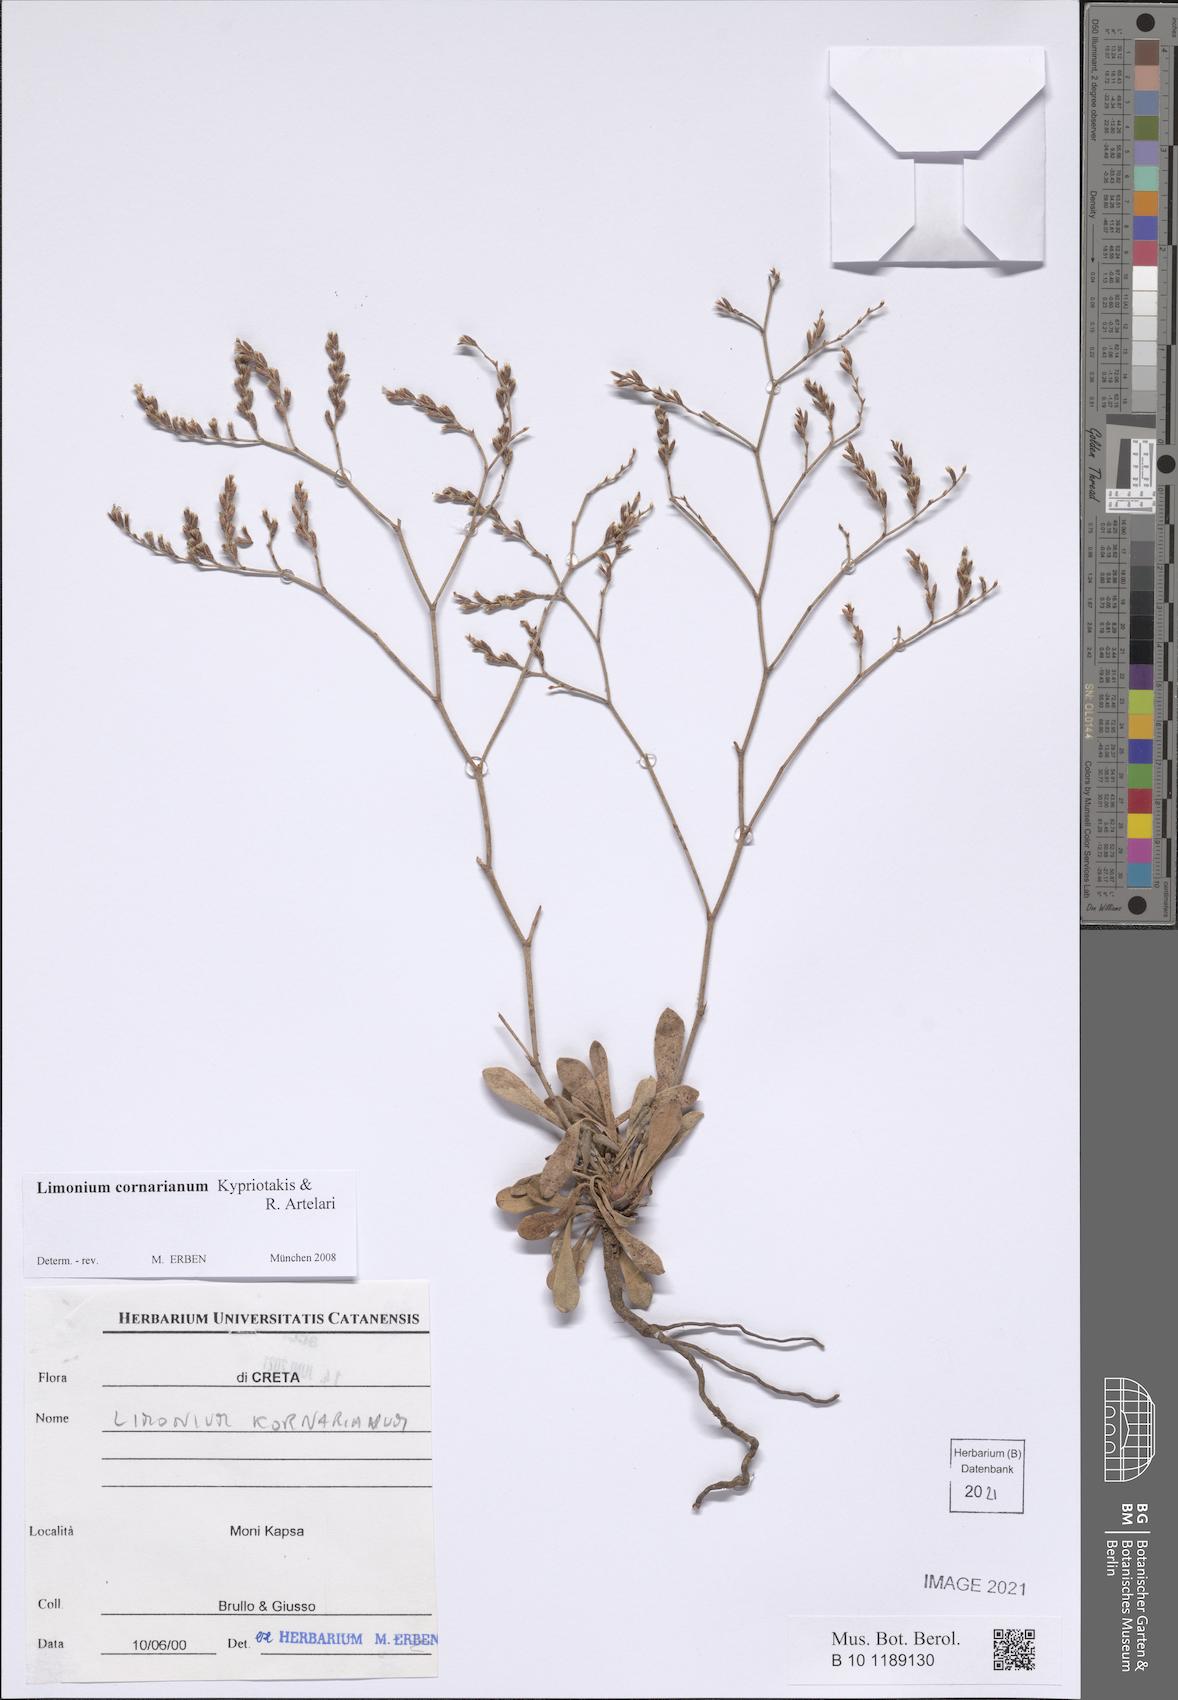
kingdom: Plantae
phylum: Tracheophyta
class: Magnoliopsida
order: Caryophyllales
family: Plumbaginaceae
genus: Limonium
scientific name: Limonium cornarianum
